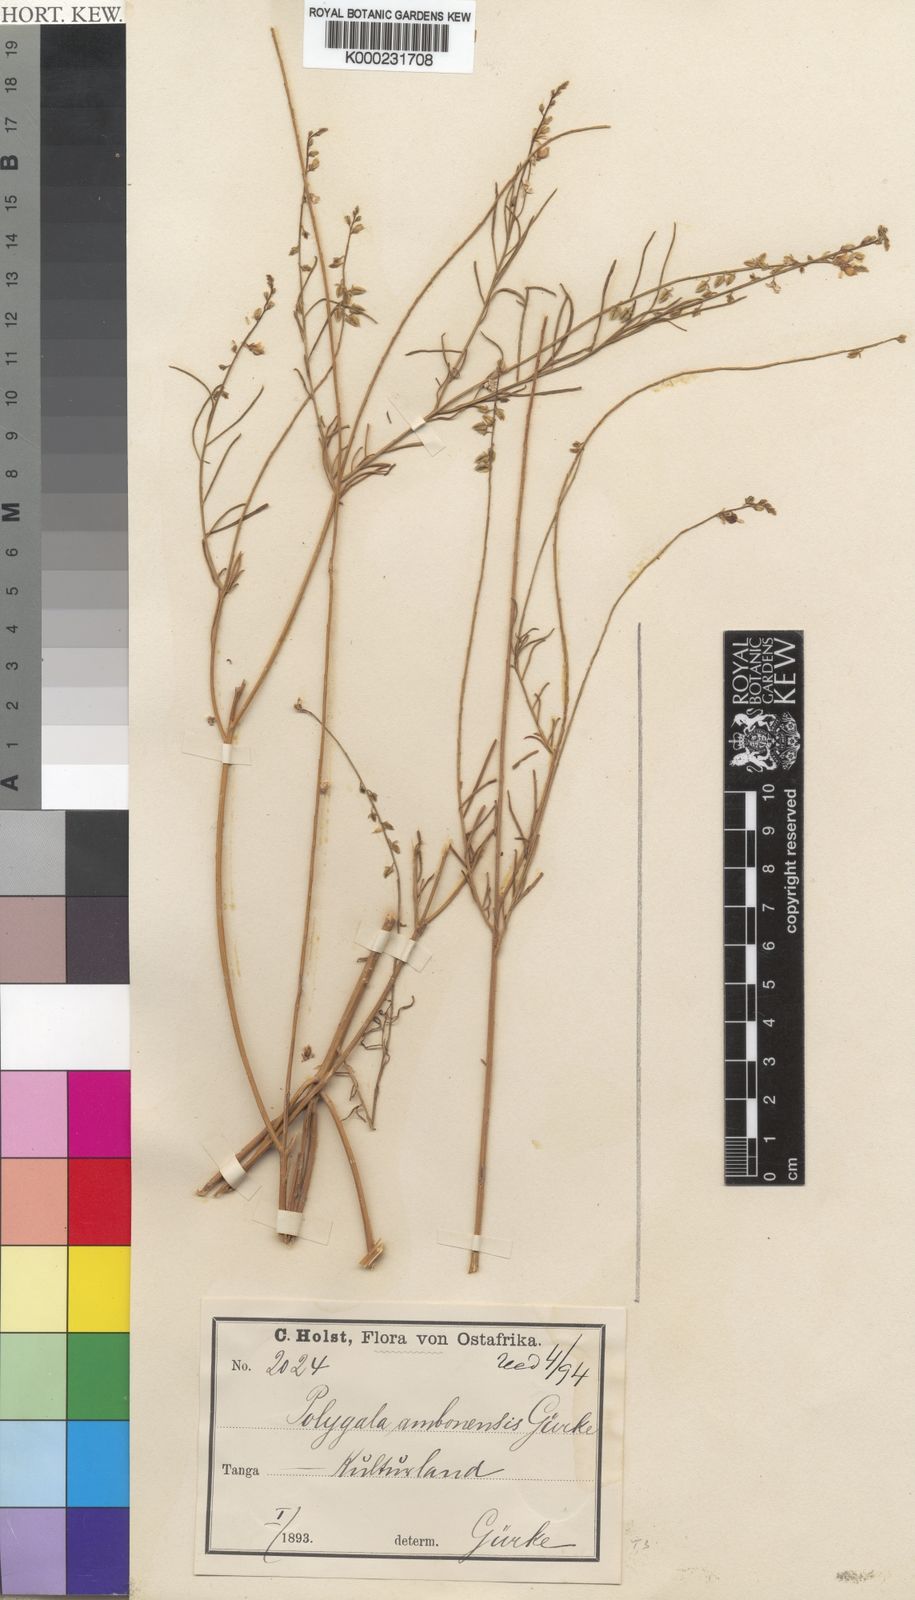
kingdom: Plantae
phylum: Tracheophyta
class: Magnoliopsida
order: Fabales
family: Polygalaceae
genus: Polygala
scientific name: Polygala
